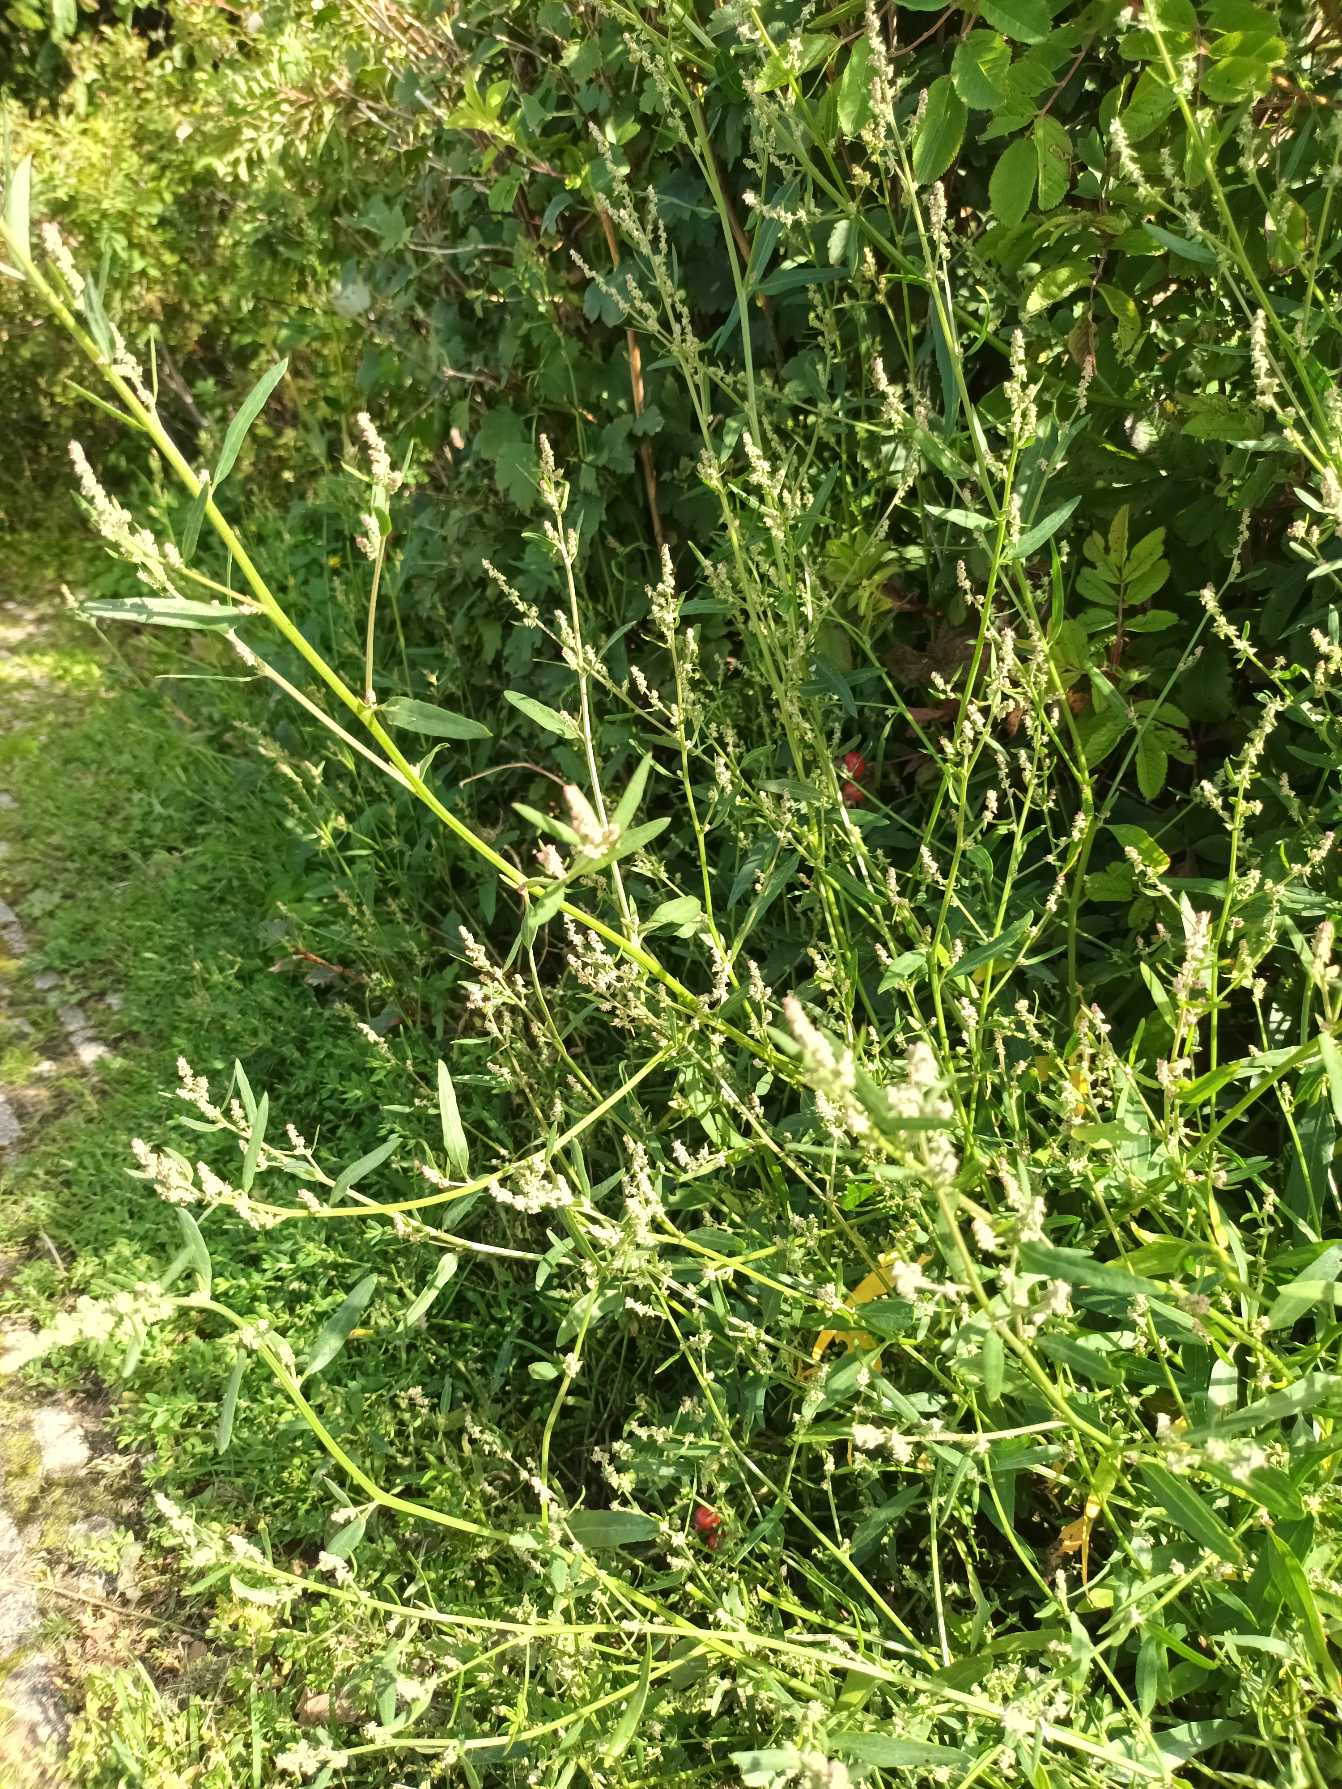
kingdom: Plantae
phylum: Tracheophyta
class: Magnoliopsida
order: Caryophyllales
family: Amaranthaceae
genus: Atriplex
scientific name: Atriplex patula
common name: Svine-mælde
